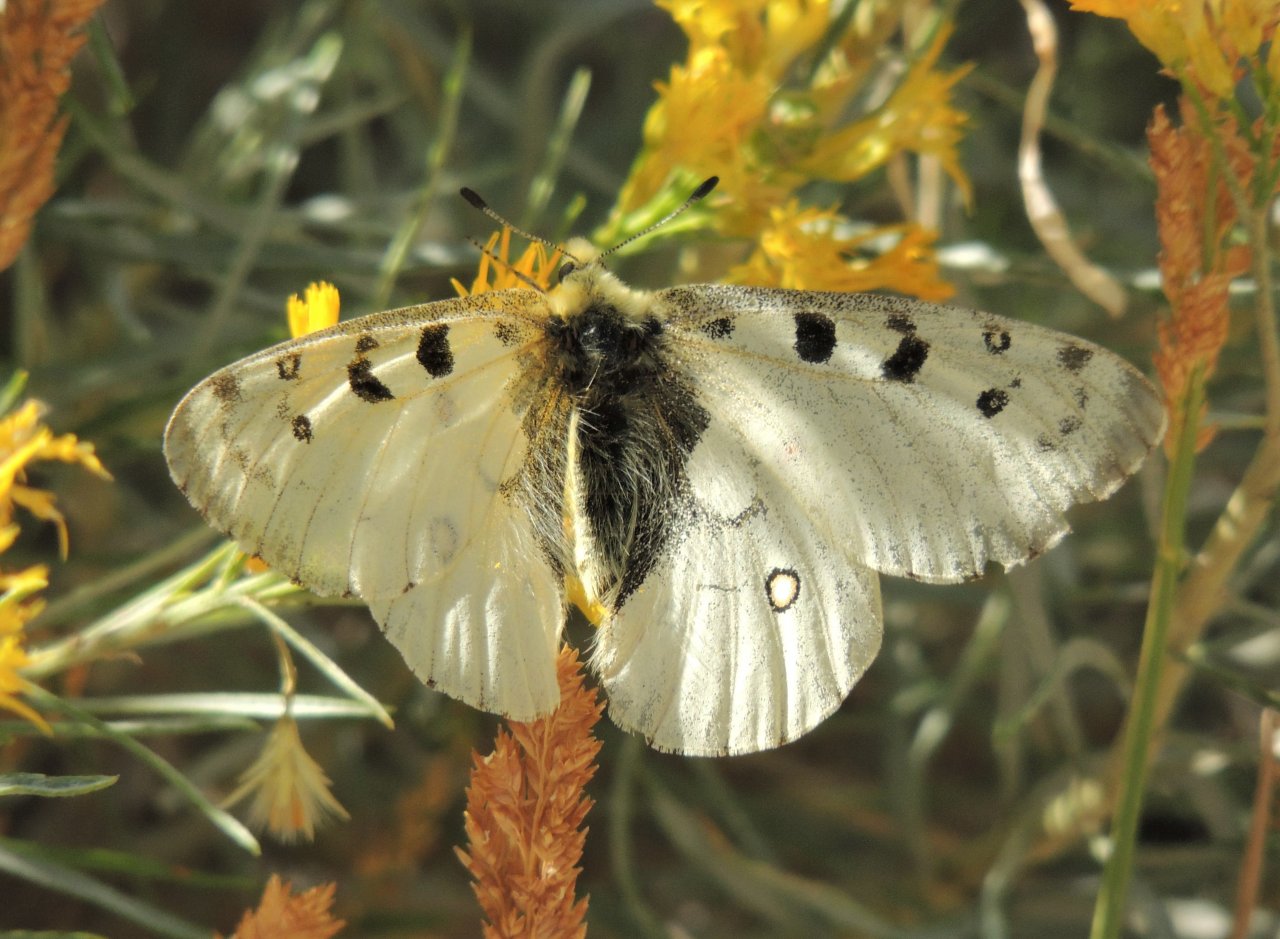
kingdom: Animalia
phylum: Arthropoda
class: Insecta
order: Lepidoptera
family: Papilionidae
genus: Parnassius
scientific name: Parnassius smintheus
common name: Rocky Mountain Parnassian
